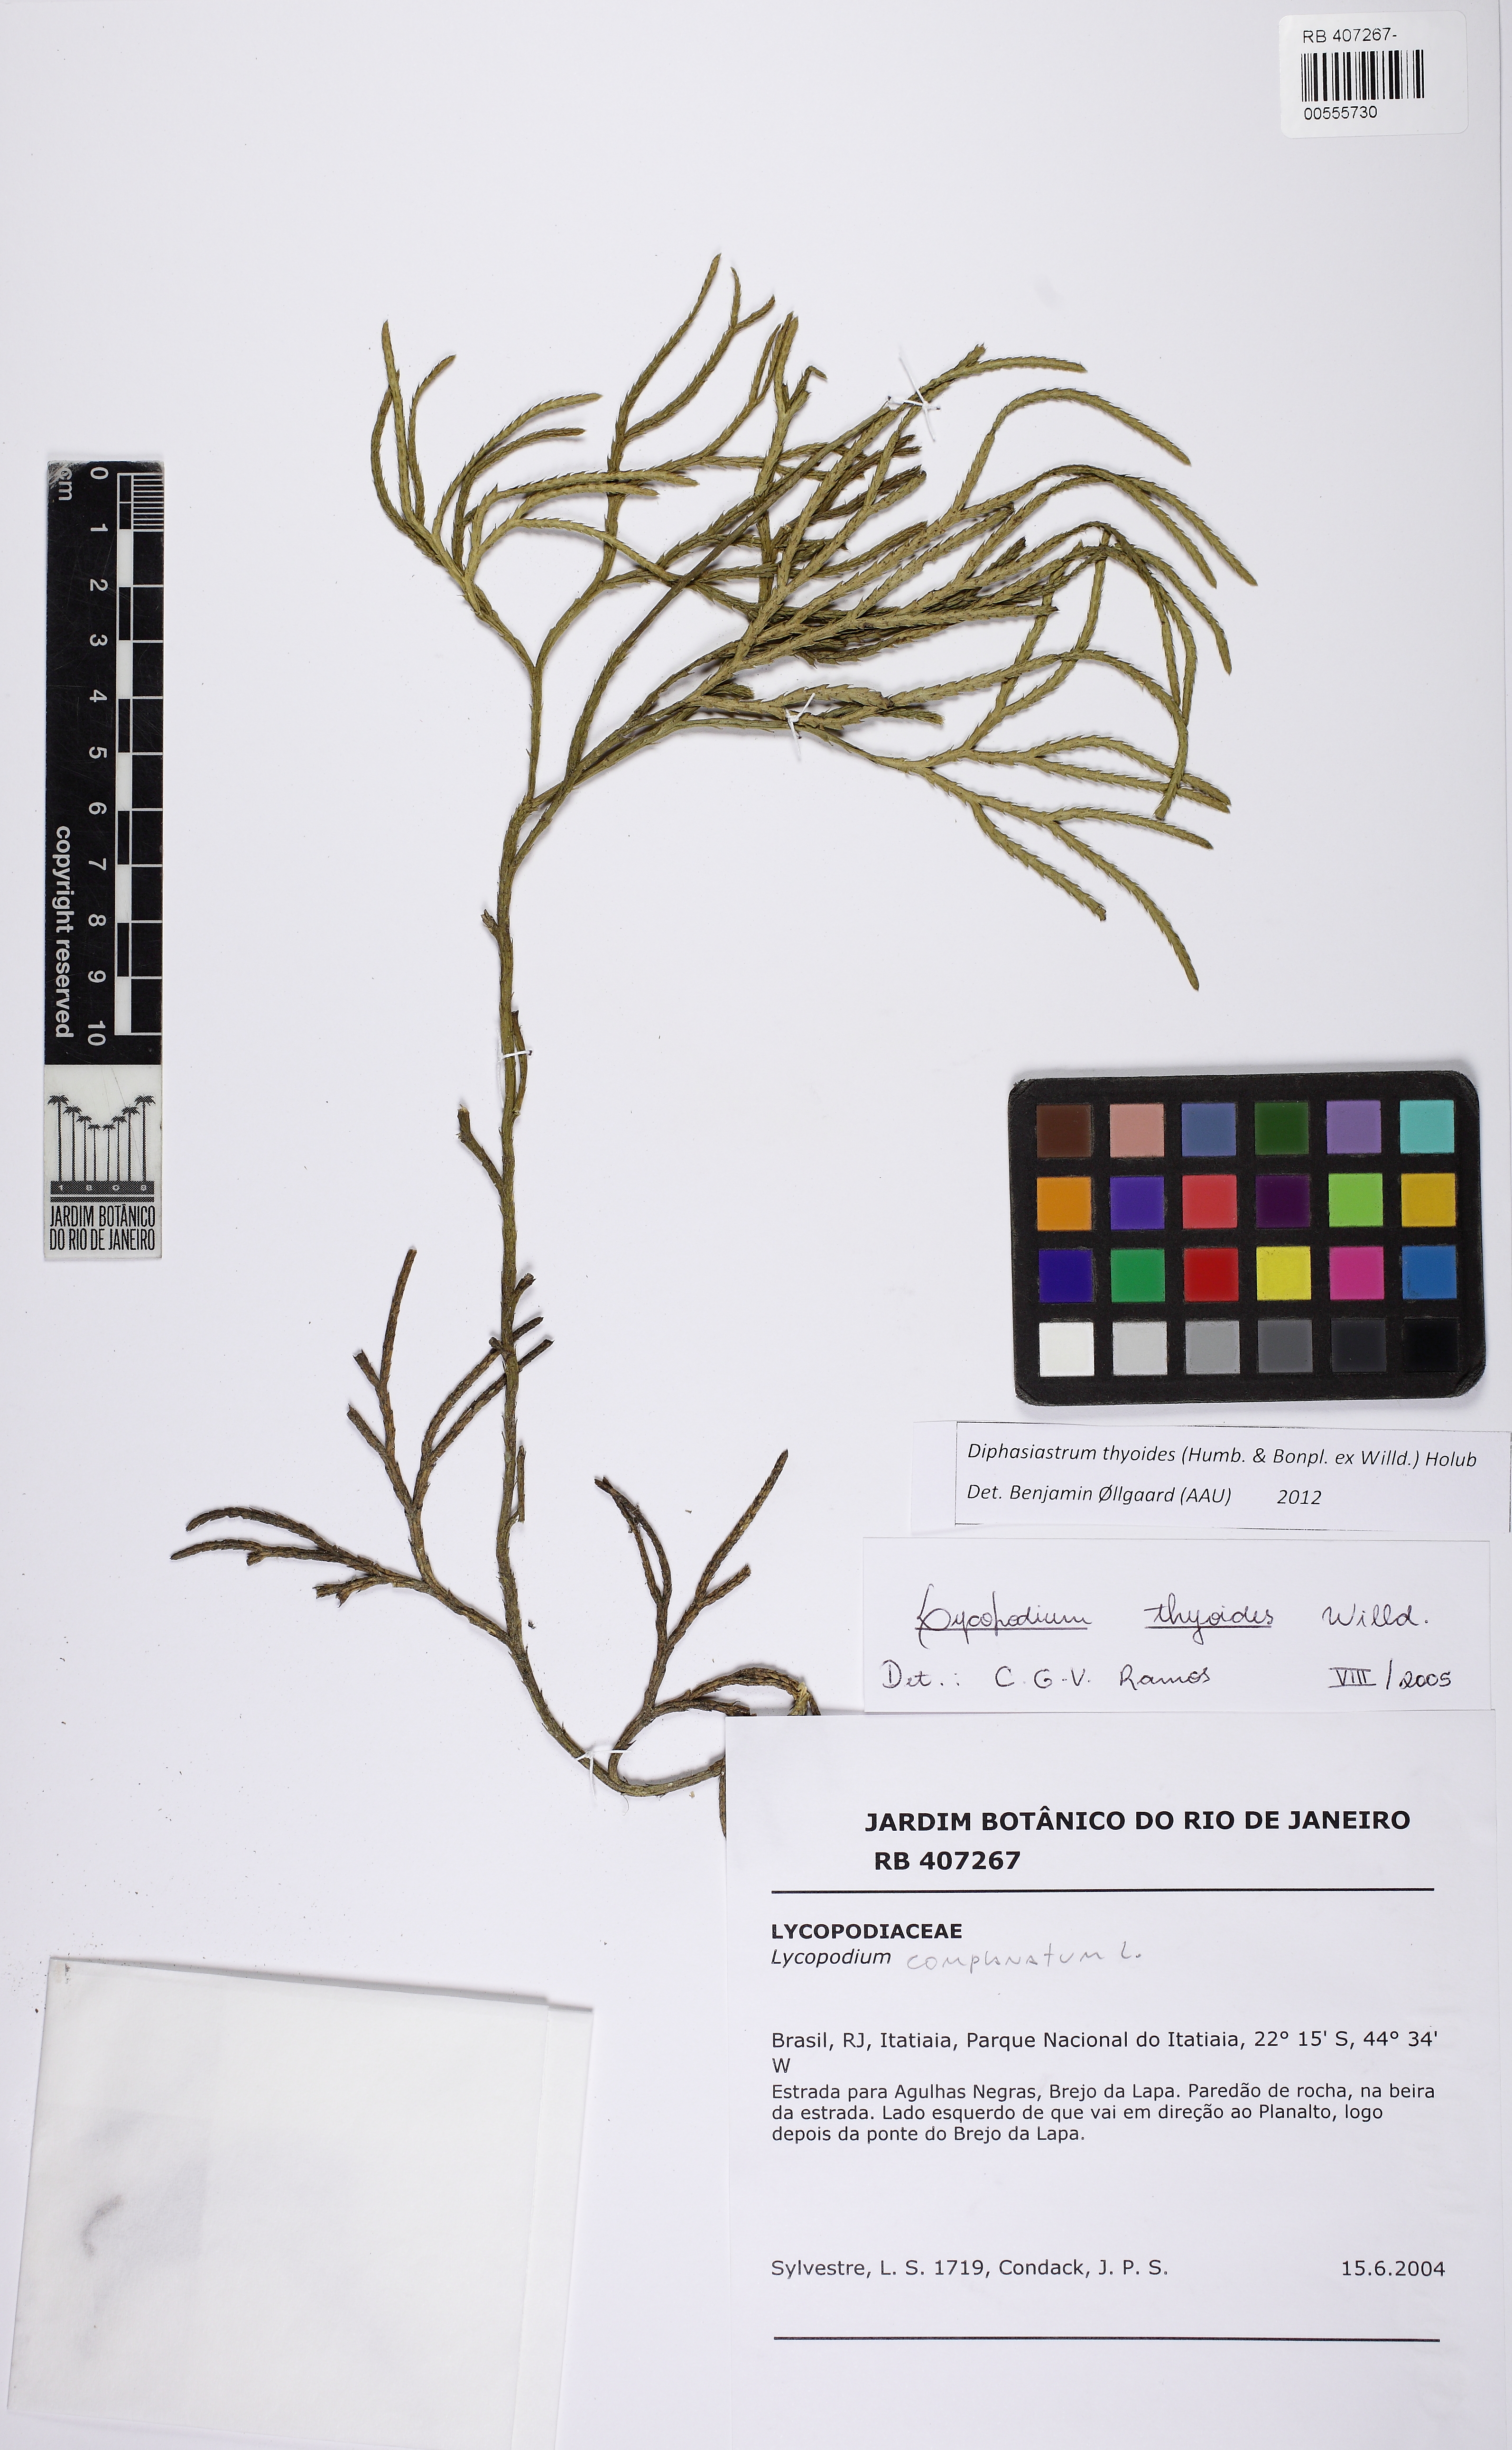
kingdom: Plantae
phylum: Tracheophyta
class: Lycopodiopsida
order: Lycopodiales
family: Lycopodiaceae
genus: Diphasiastrum
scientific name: Diphasiastrum thyoides
